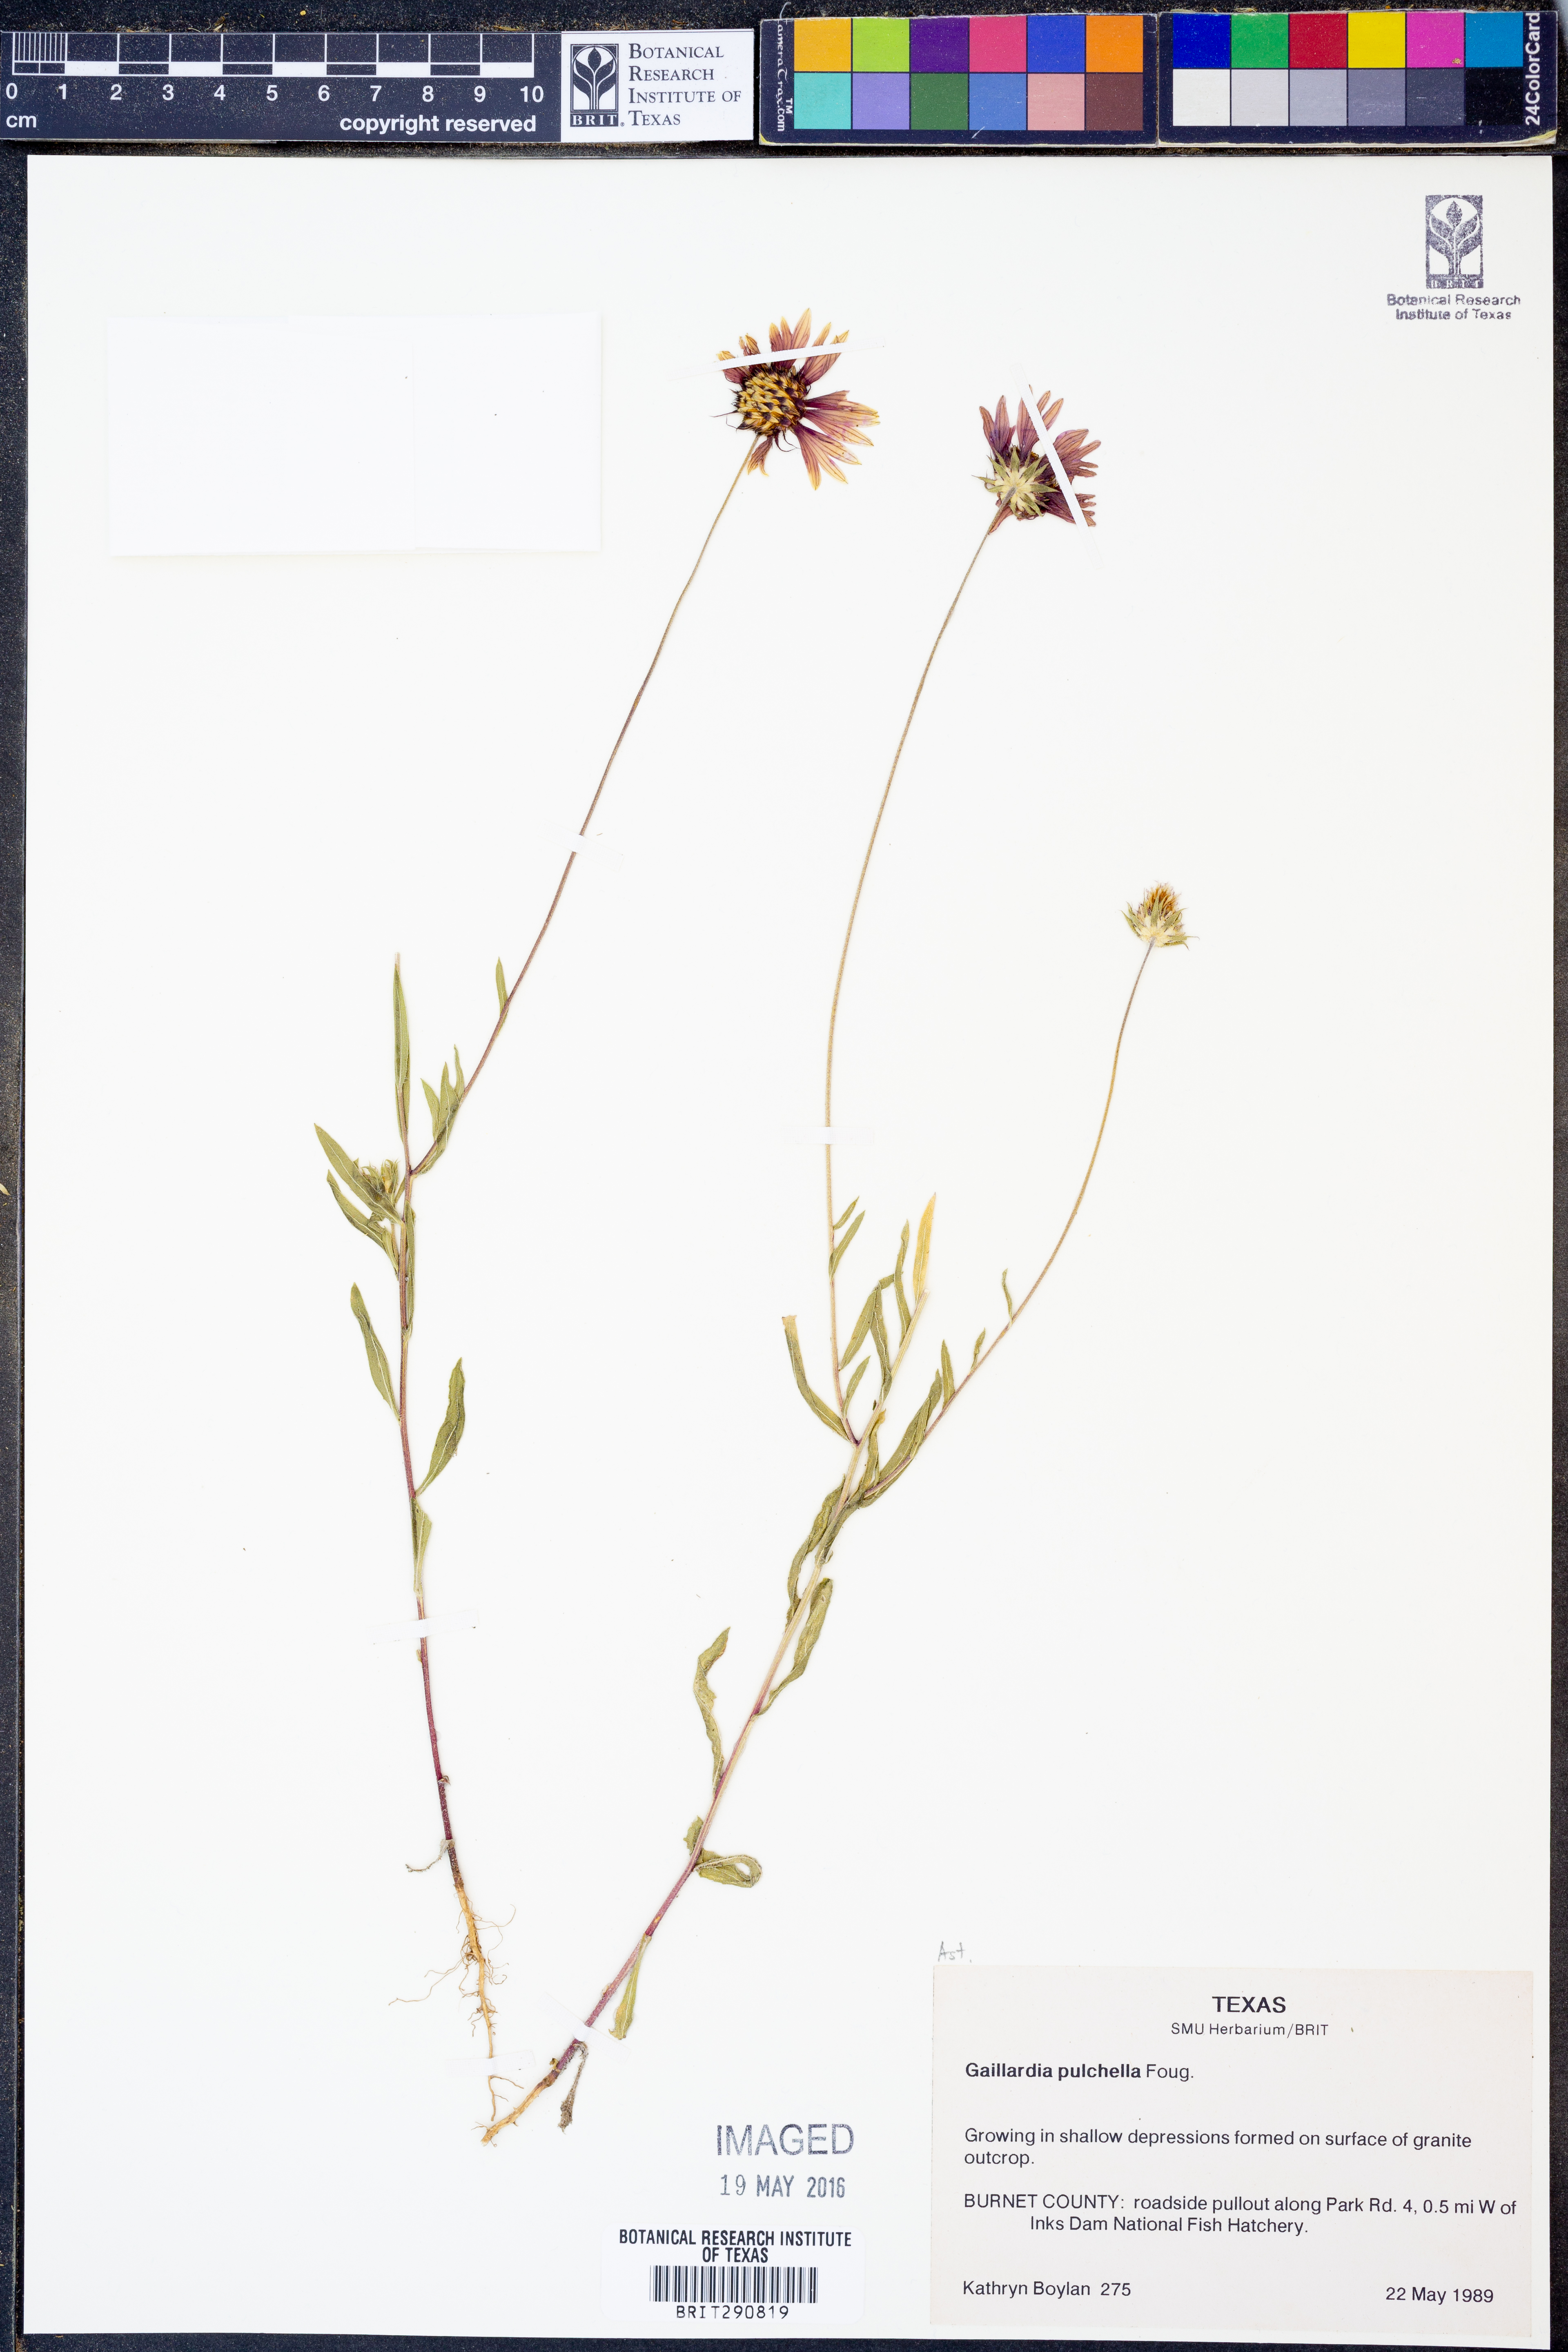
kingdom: Plantae
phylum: Tracheophyta
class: Magnoliopsida
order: Asterales
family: Asteraceae
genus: Gaillardia
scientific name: Gaillardia pulchella
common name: Firewheel
